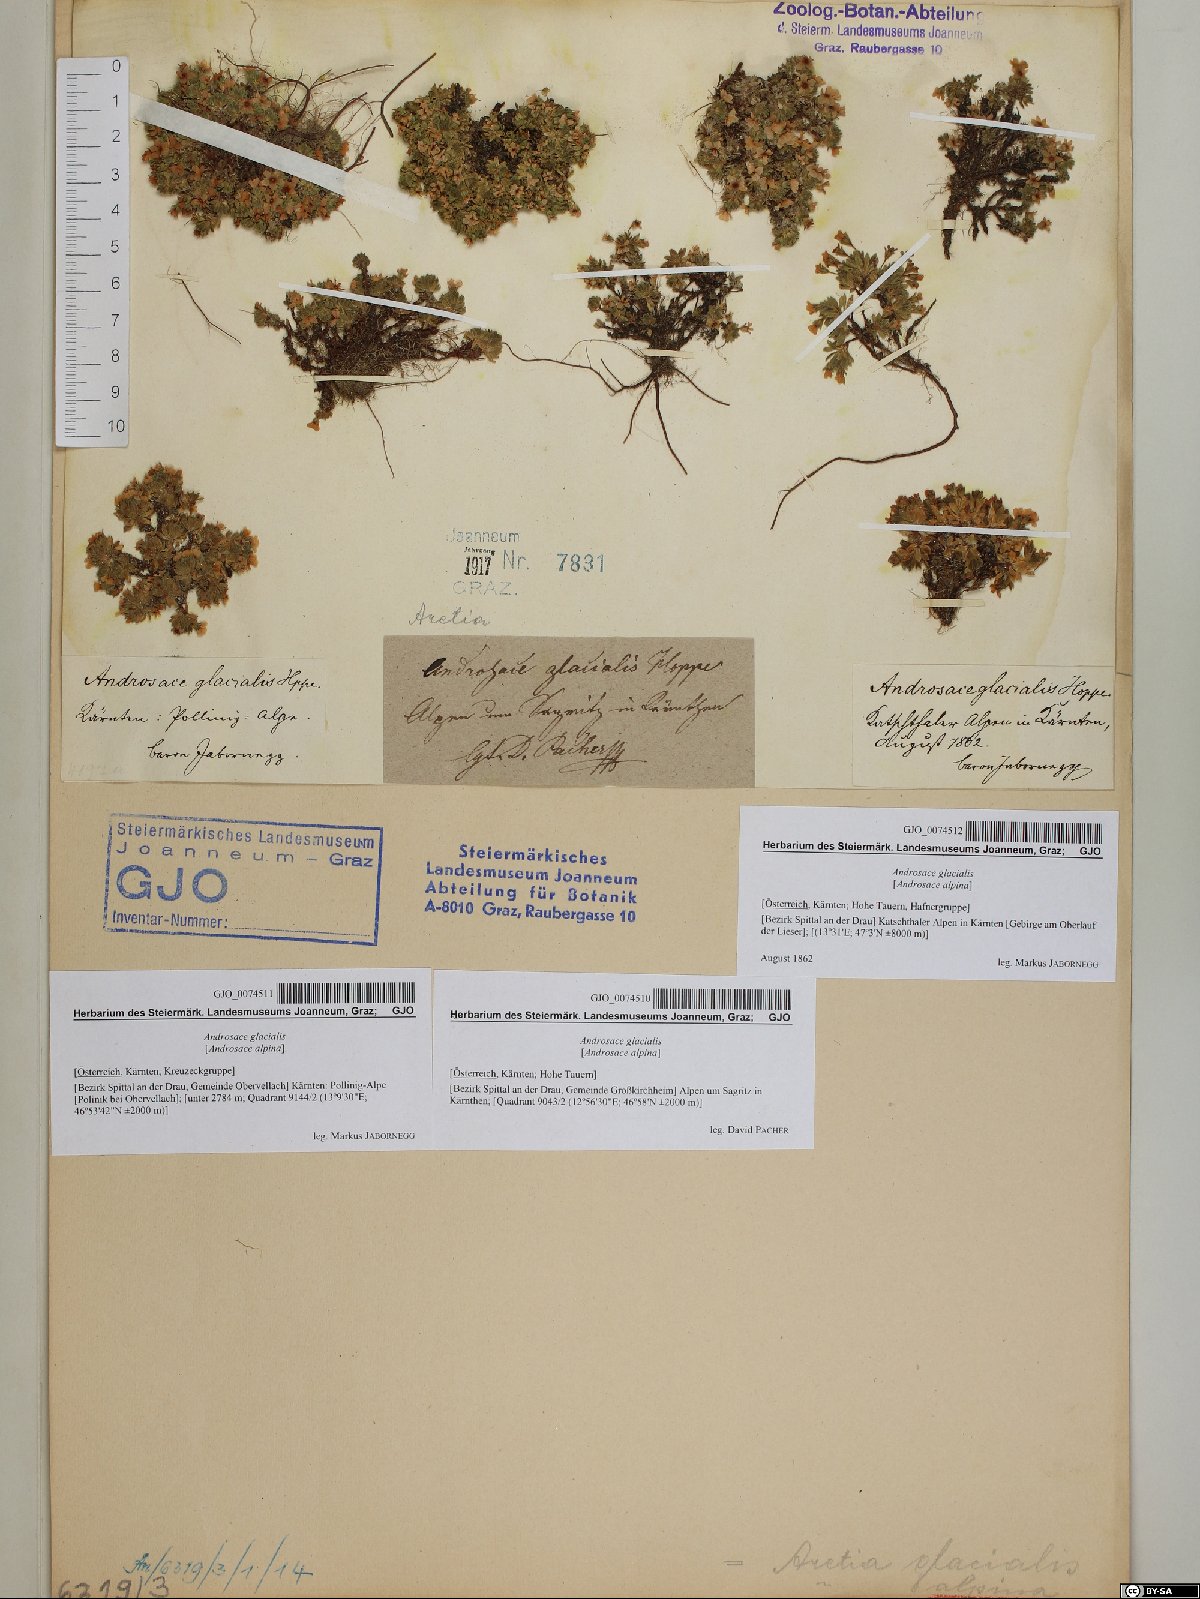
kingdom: Plantae
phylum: Tracheophyta
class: Magnoliopsida
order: Ericales
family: Primulaceae
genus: Androsace
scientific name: Androsace alpina
